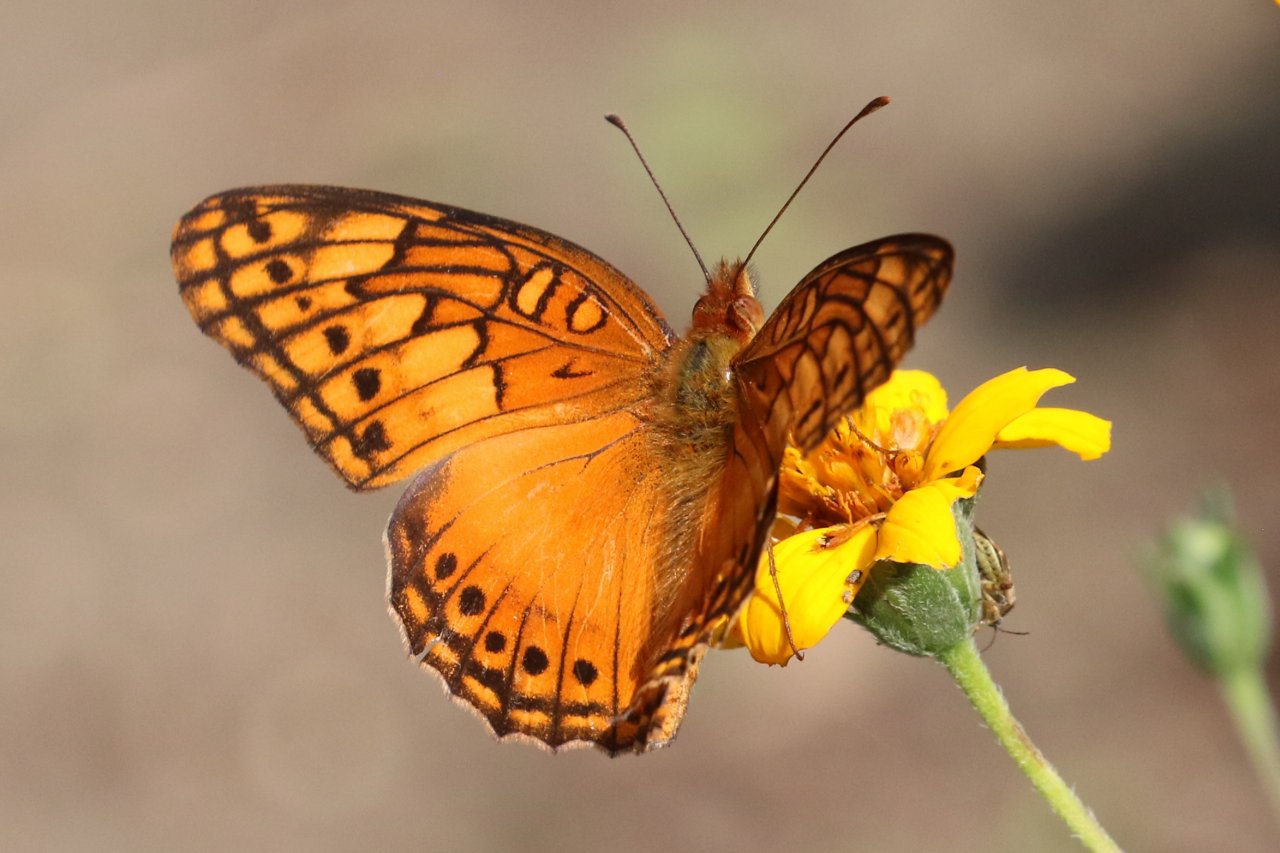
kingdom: Animalia
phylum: Arthropoda
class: Insecta
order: Lepidoptera
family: Nymphalidae
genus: Euptoieta
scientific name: Euptoieta hegesia
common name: Mexican Fritillary
